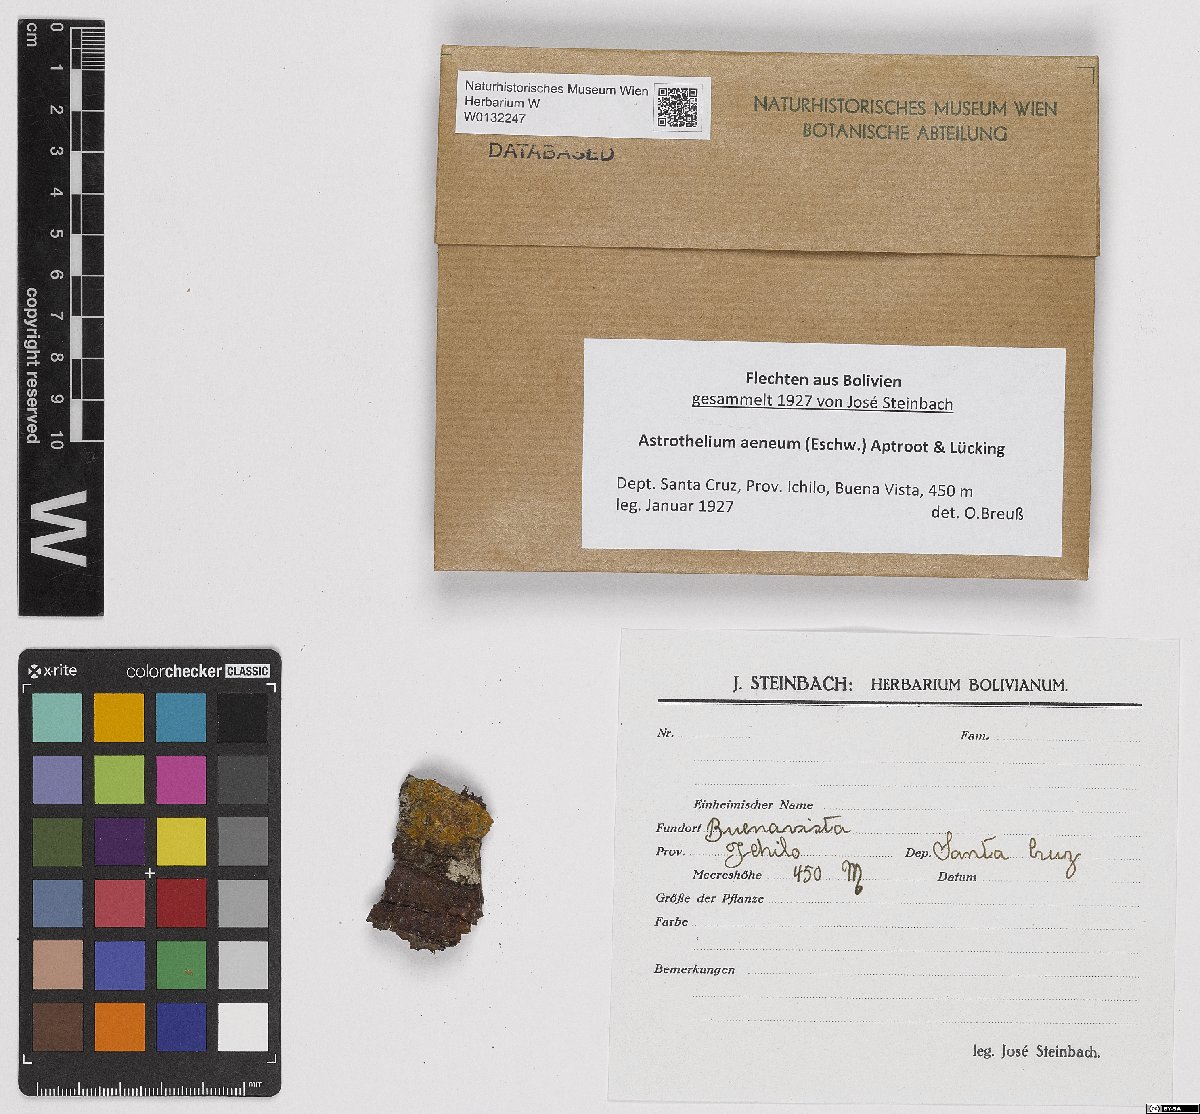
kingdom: Fungi
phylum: Ascomycota
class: Dothideomycetes
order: Trypetheliales
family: Trypetheliaceae
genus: Astrothelium
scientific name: Astrothelium aeneum
